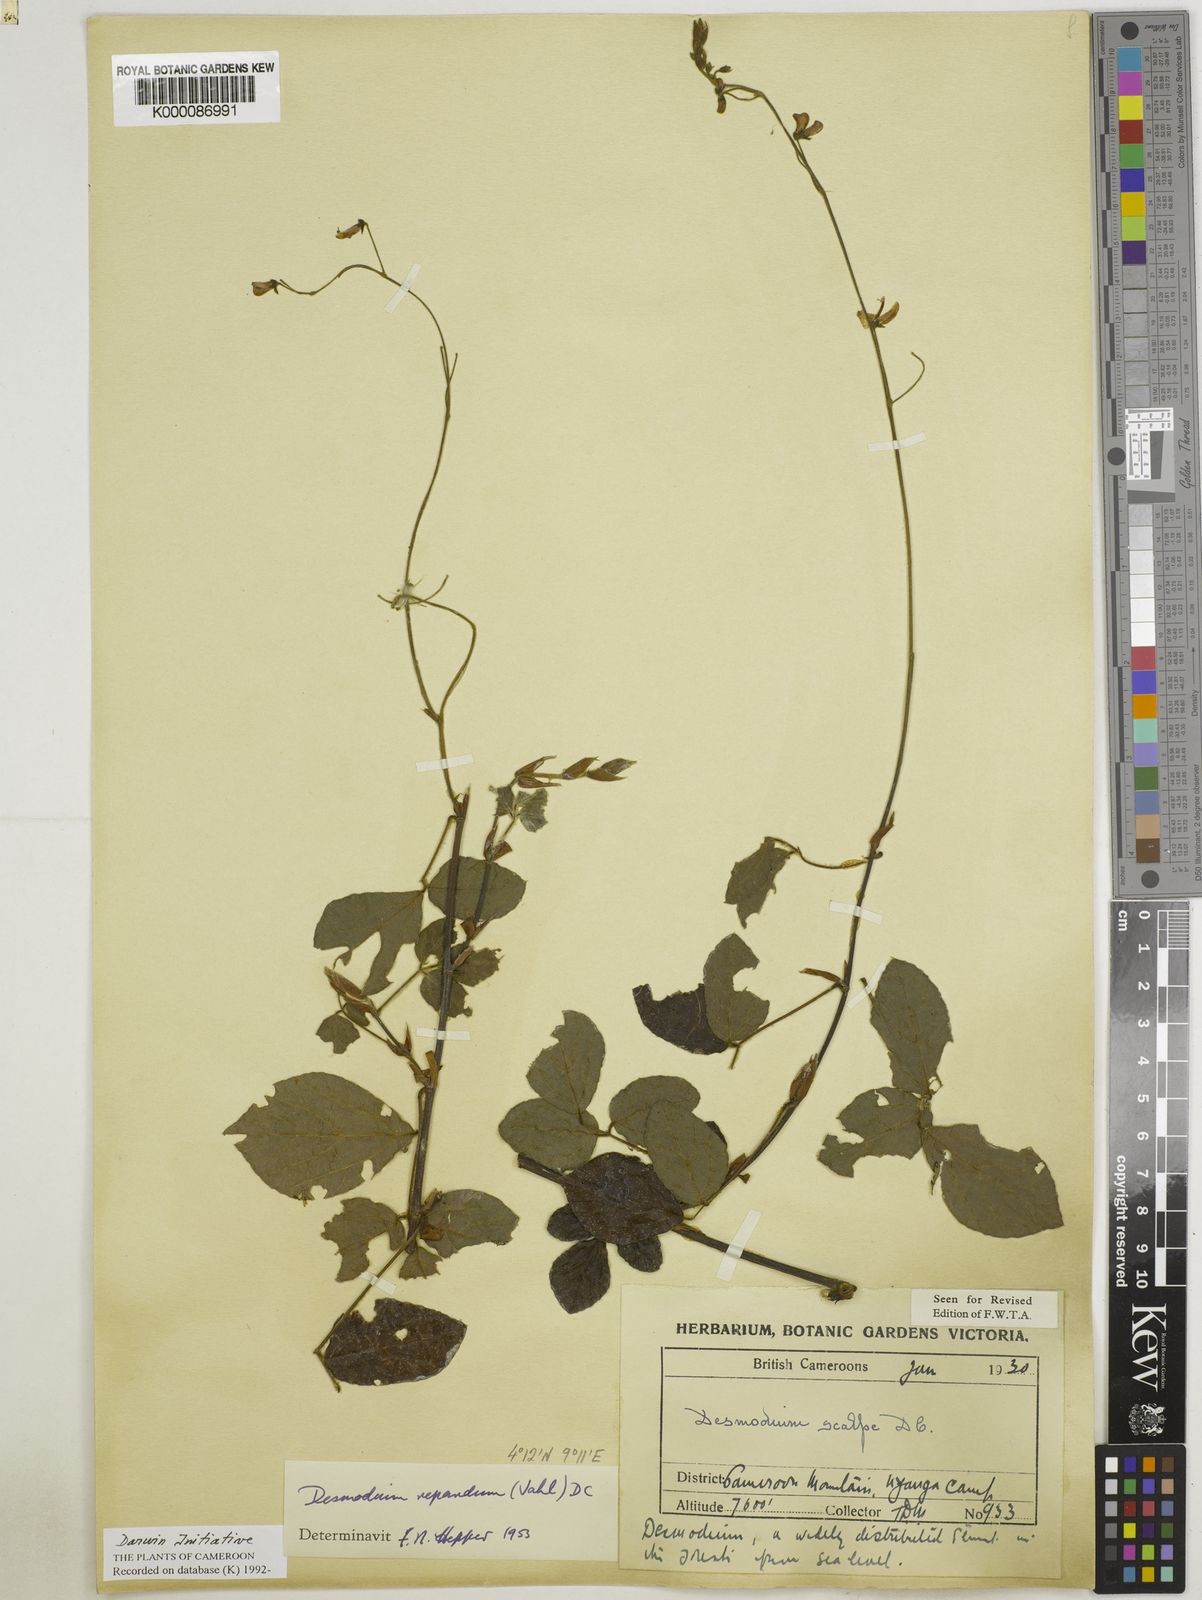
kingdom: Plantae
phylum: Tracheophyta
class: Magnoliopsida
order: Fabales
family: Fabaceae
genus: Desmodium
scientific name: Desmodium
